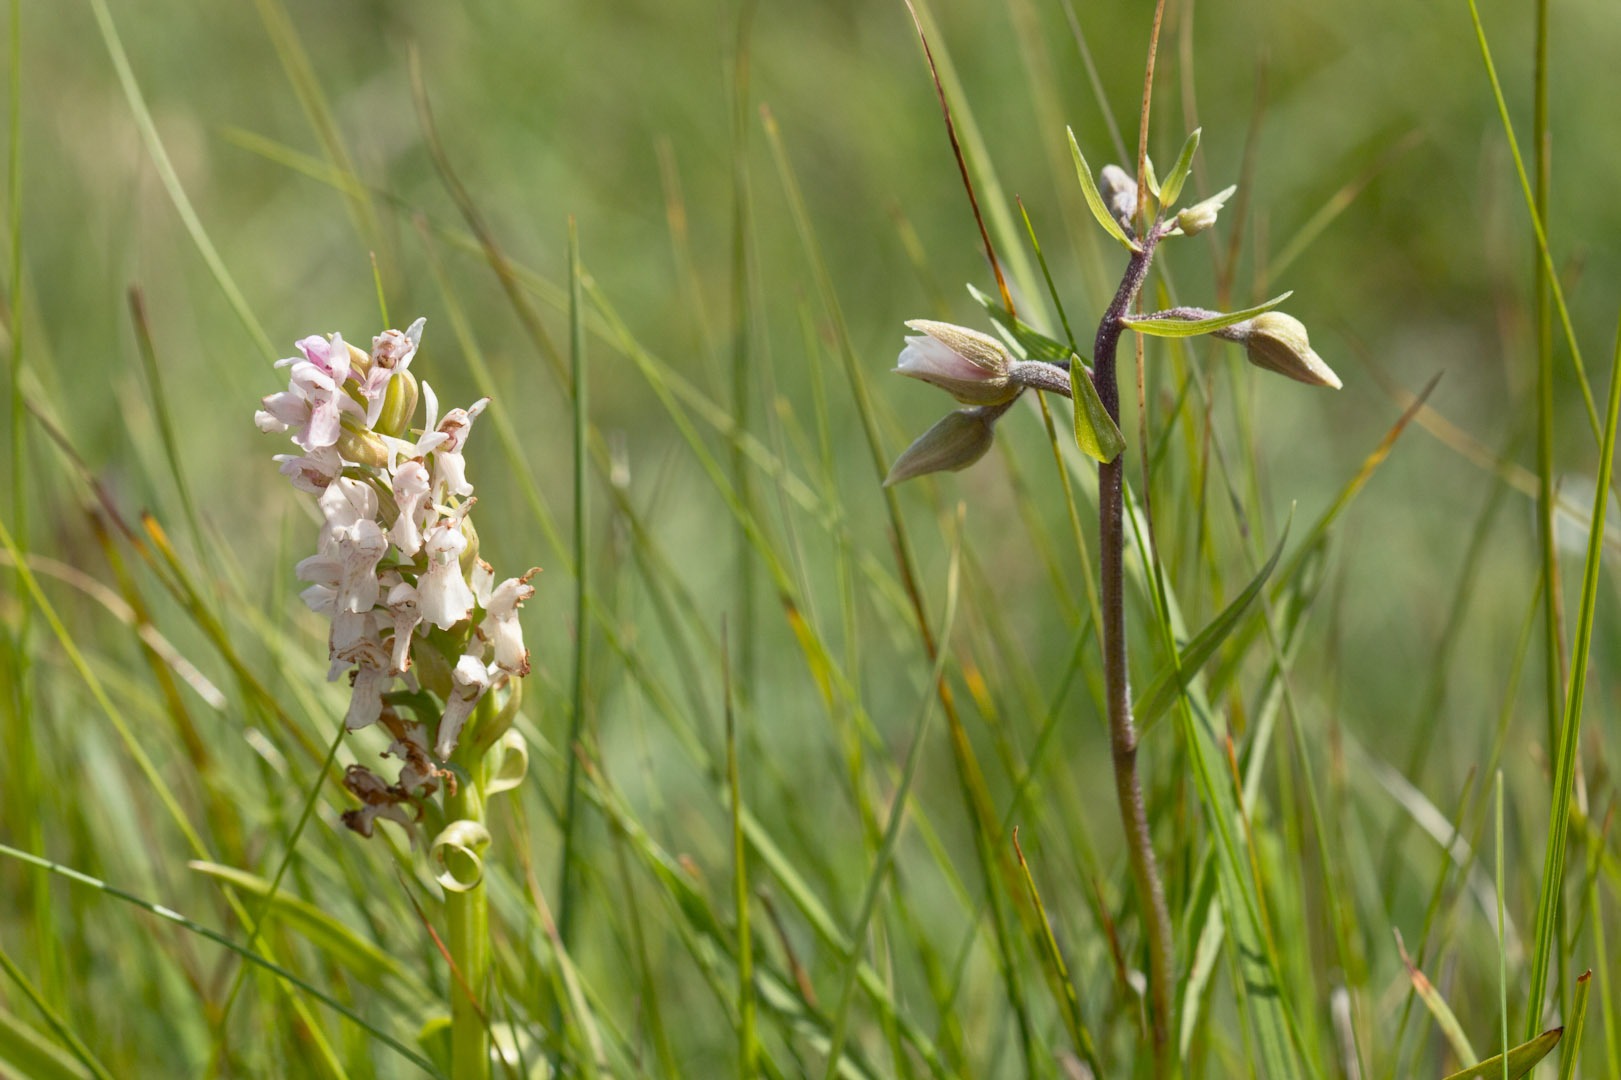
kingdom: Plantae
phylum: Tracheophyta
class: Liliopsida
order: Asparagales
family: Orchidaceae
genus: Epipactis
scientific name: Epipactis palustris
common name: Sump-hullæbe
